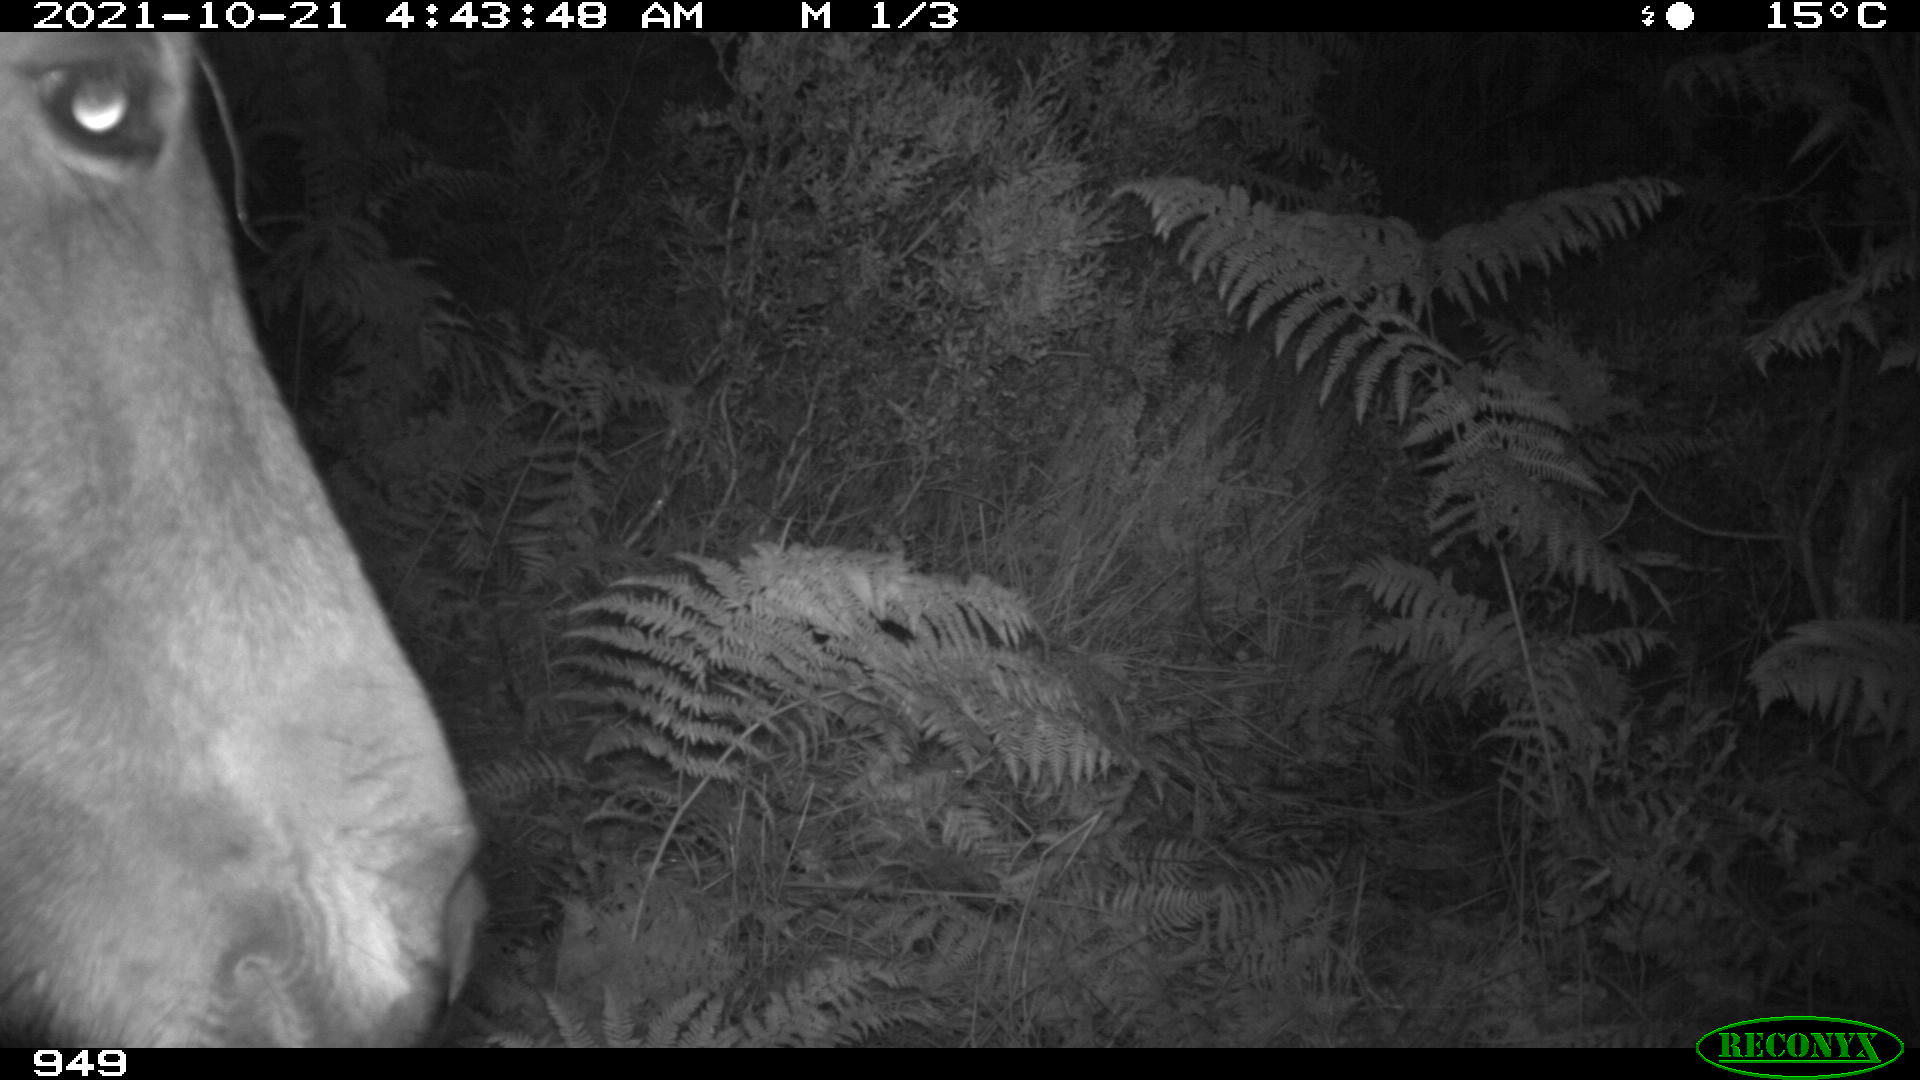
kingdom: Animalia
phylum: Chordata
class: Mammalia
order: Perissodactyla
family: Equidae
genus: Equus
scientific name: Equus caballus
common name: Horse
